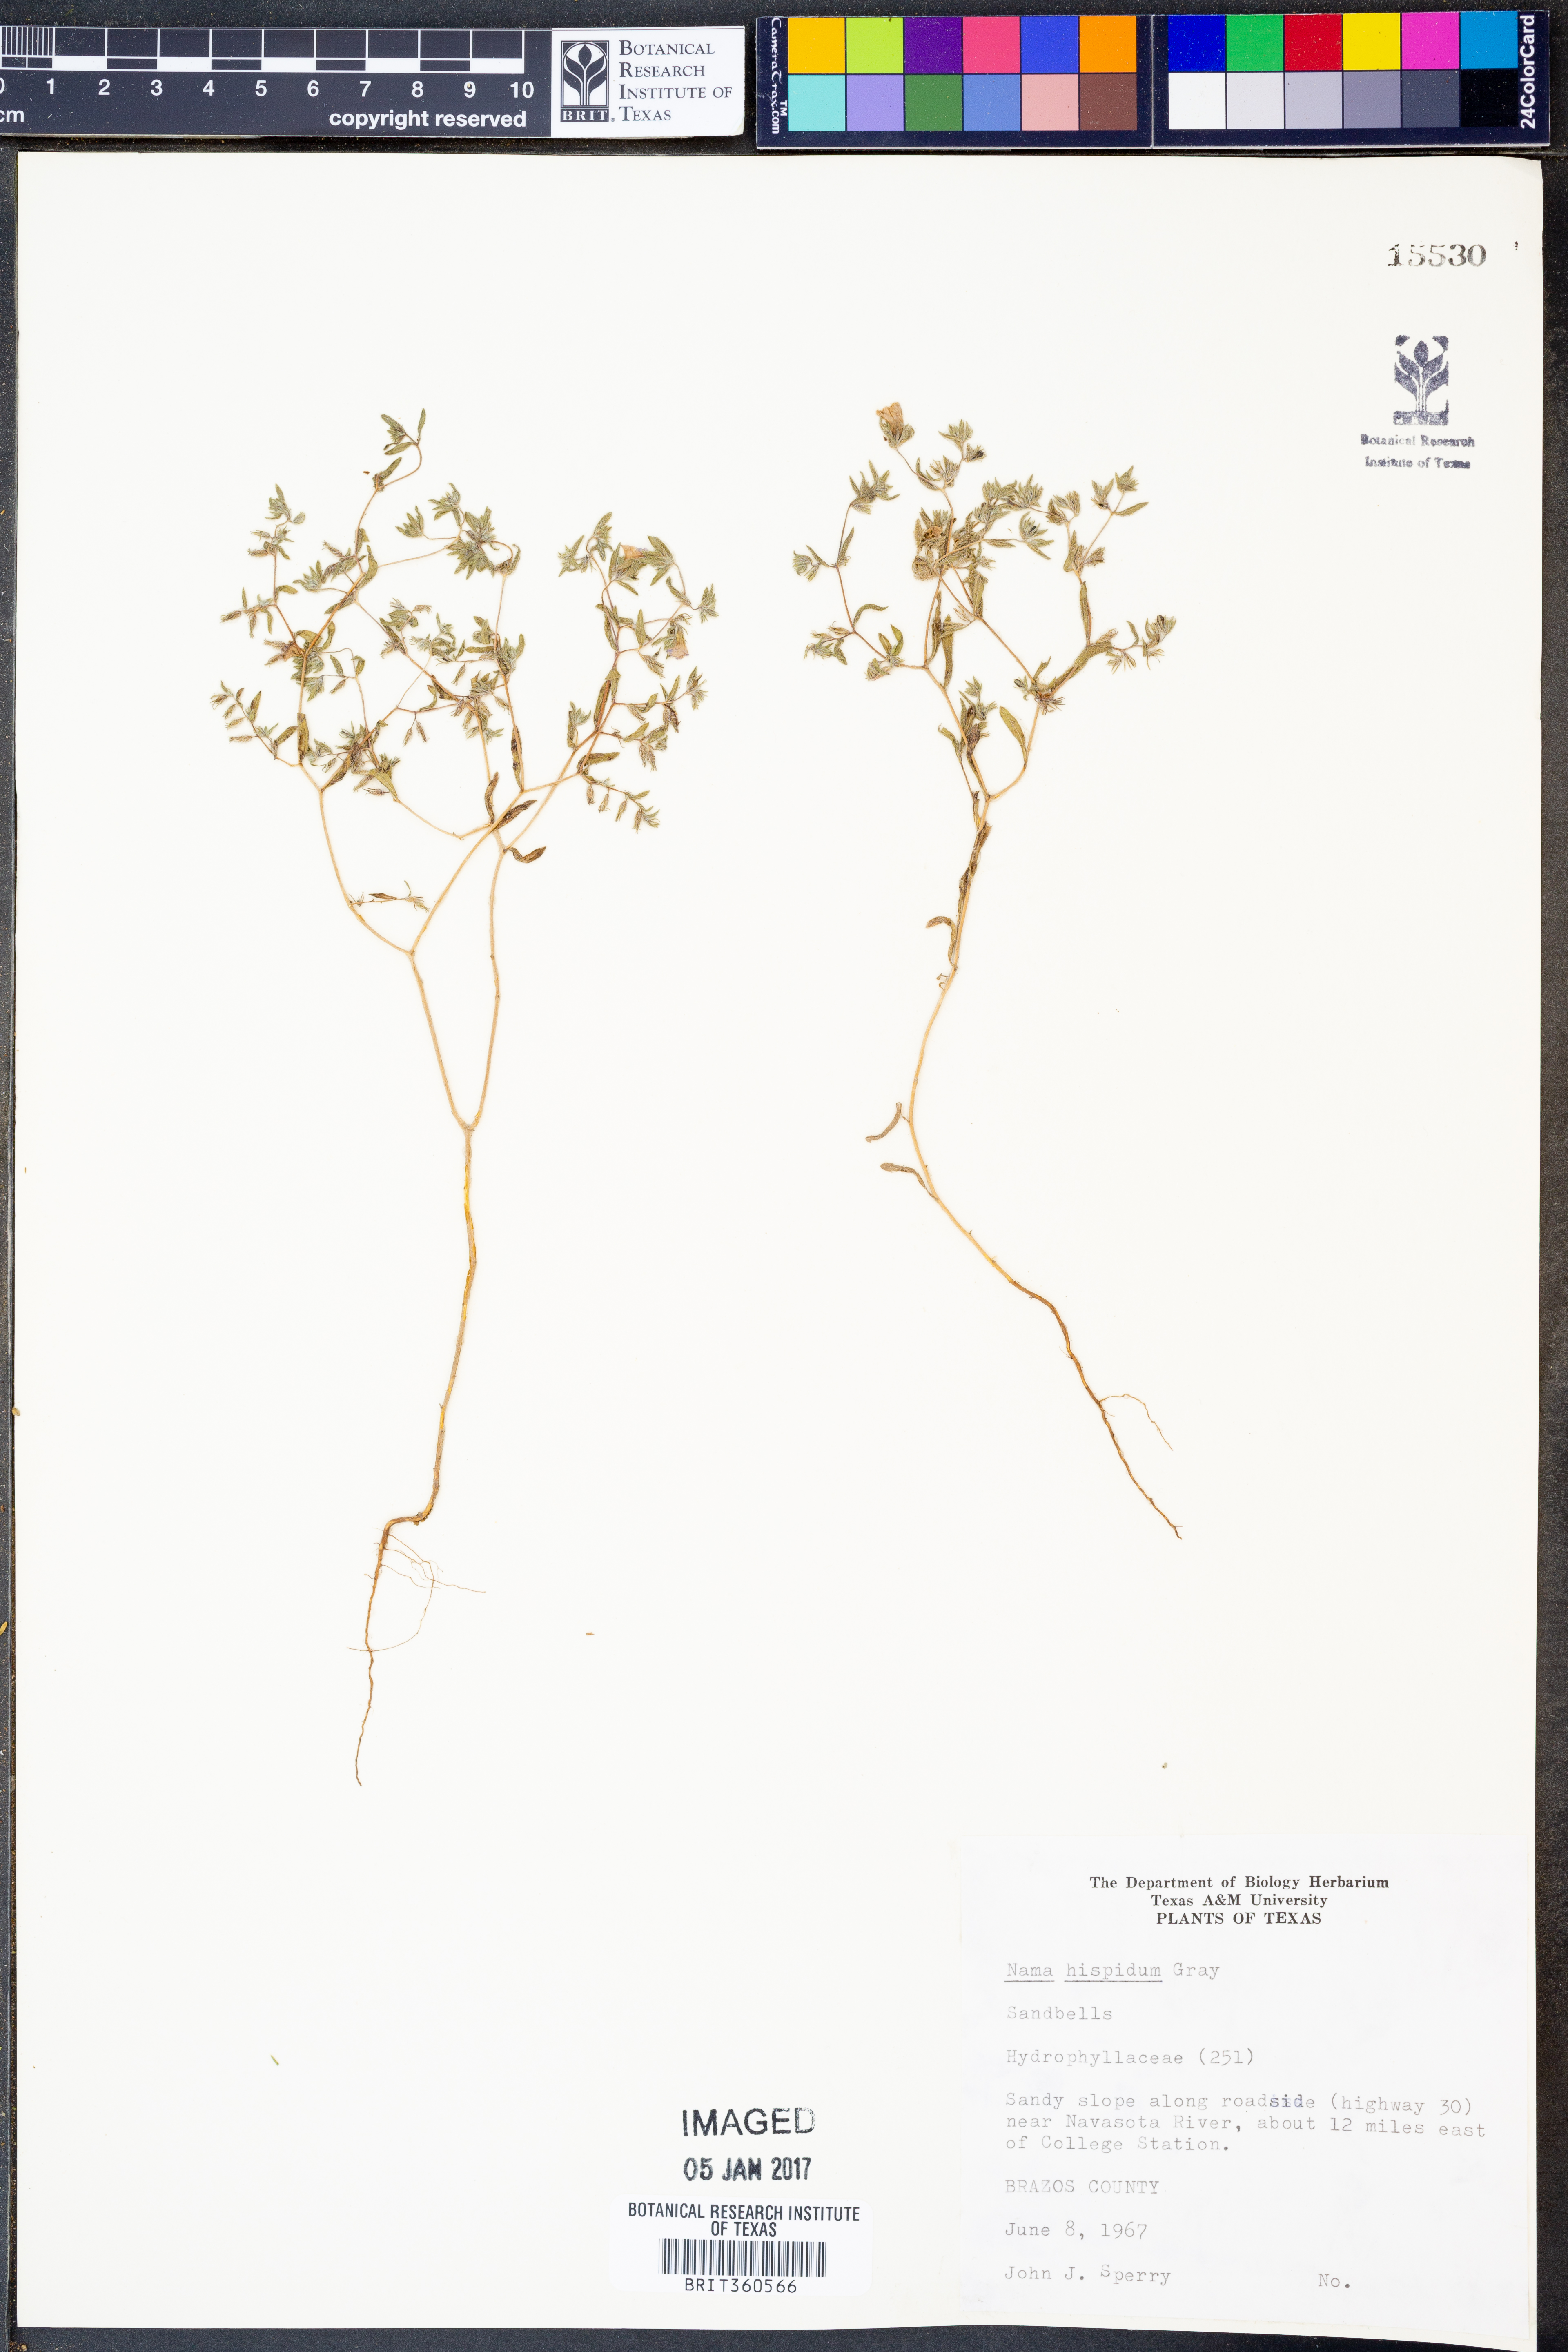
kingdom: Plantae
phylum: Tracheophyta
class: Magnoliopsida
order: Boraginales
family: Namaceae
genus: Nama
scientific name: Nama hispida
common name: Bristly nama
